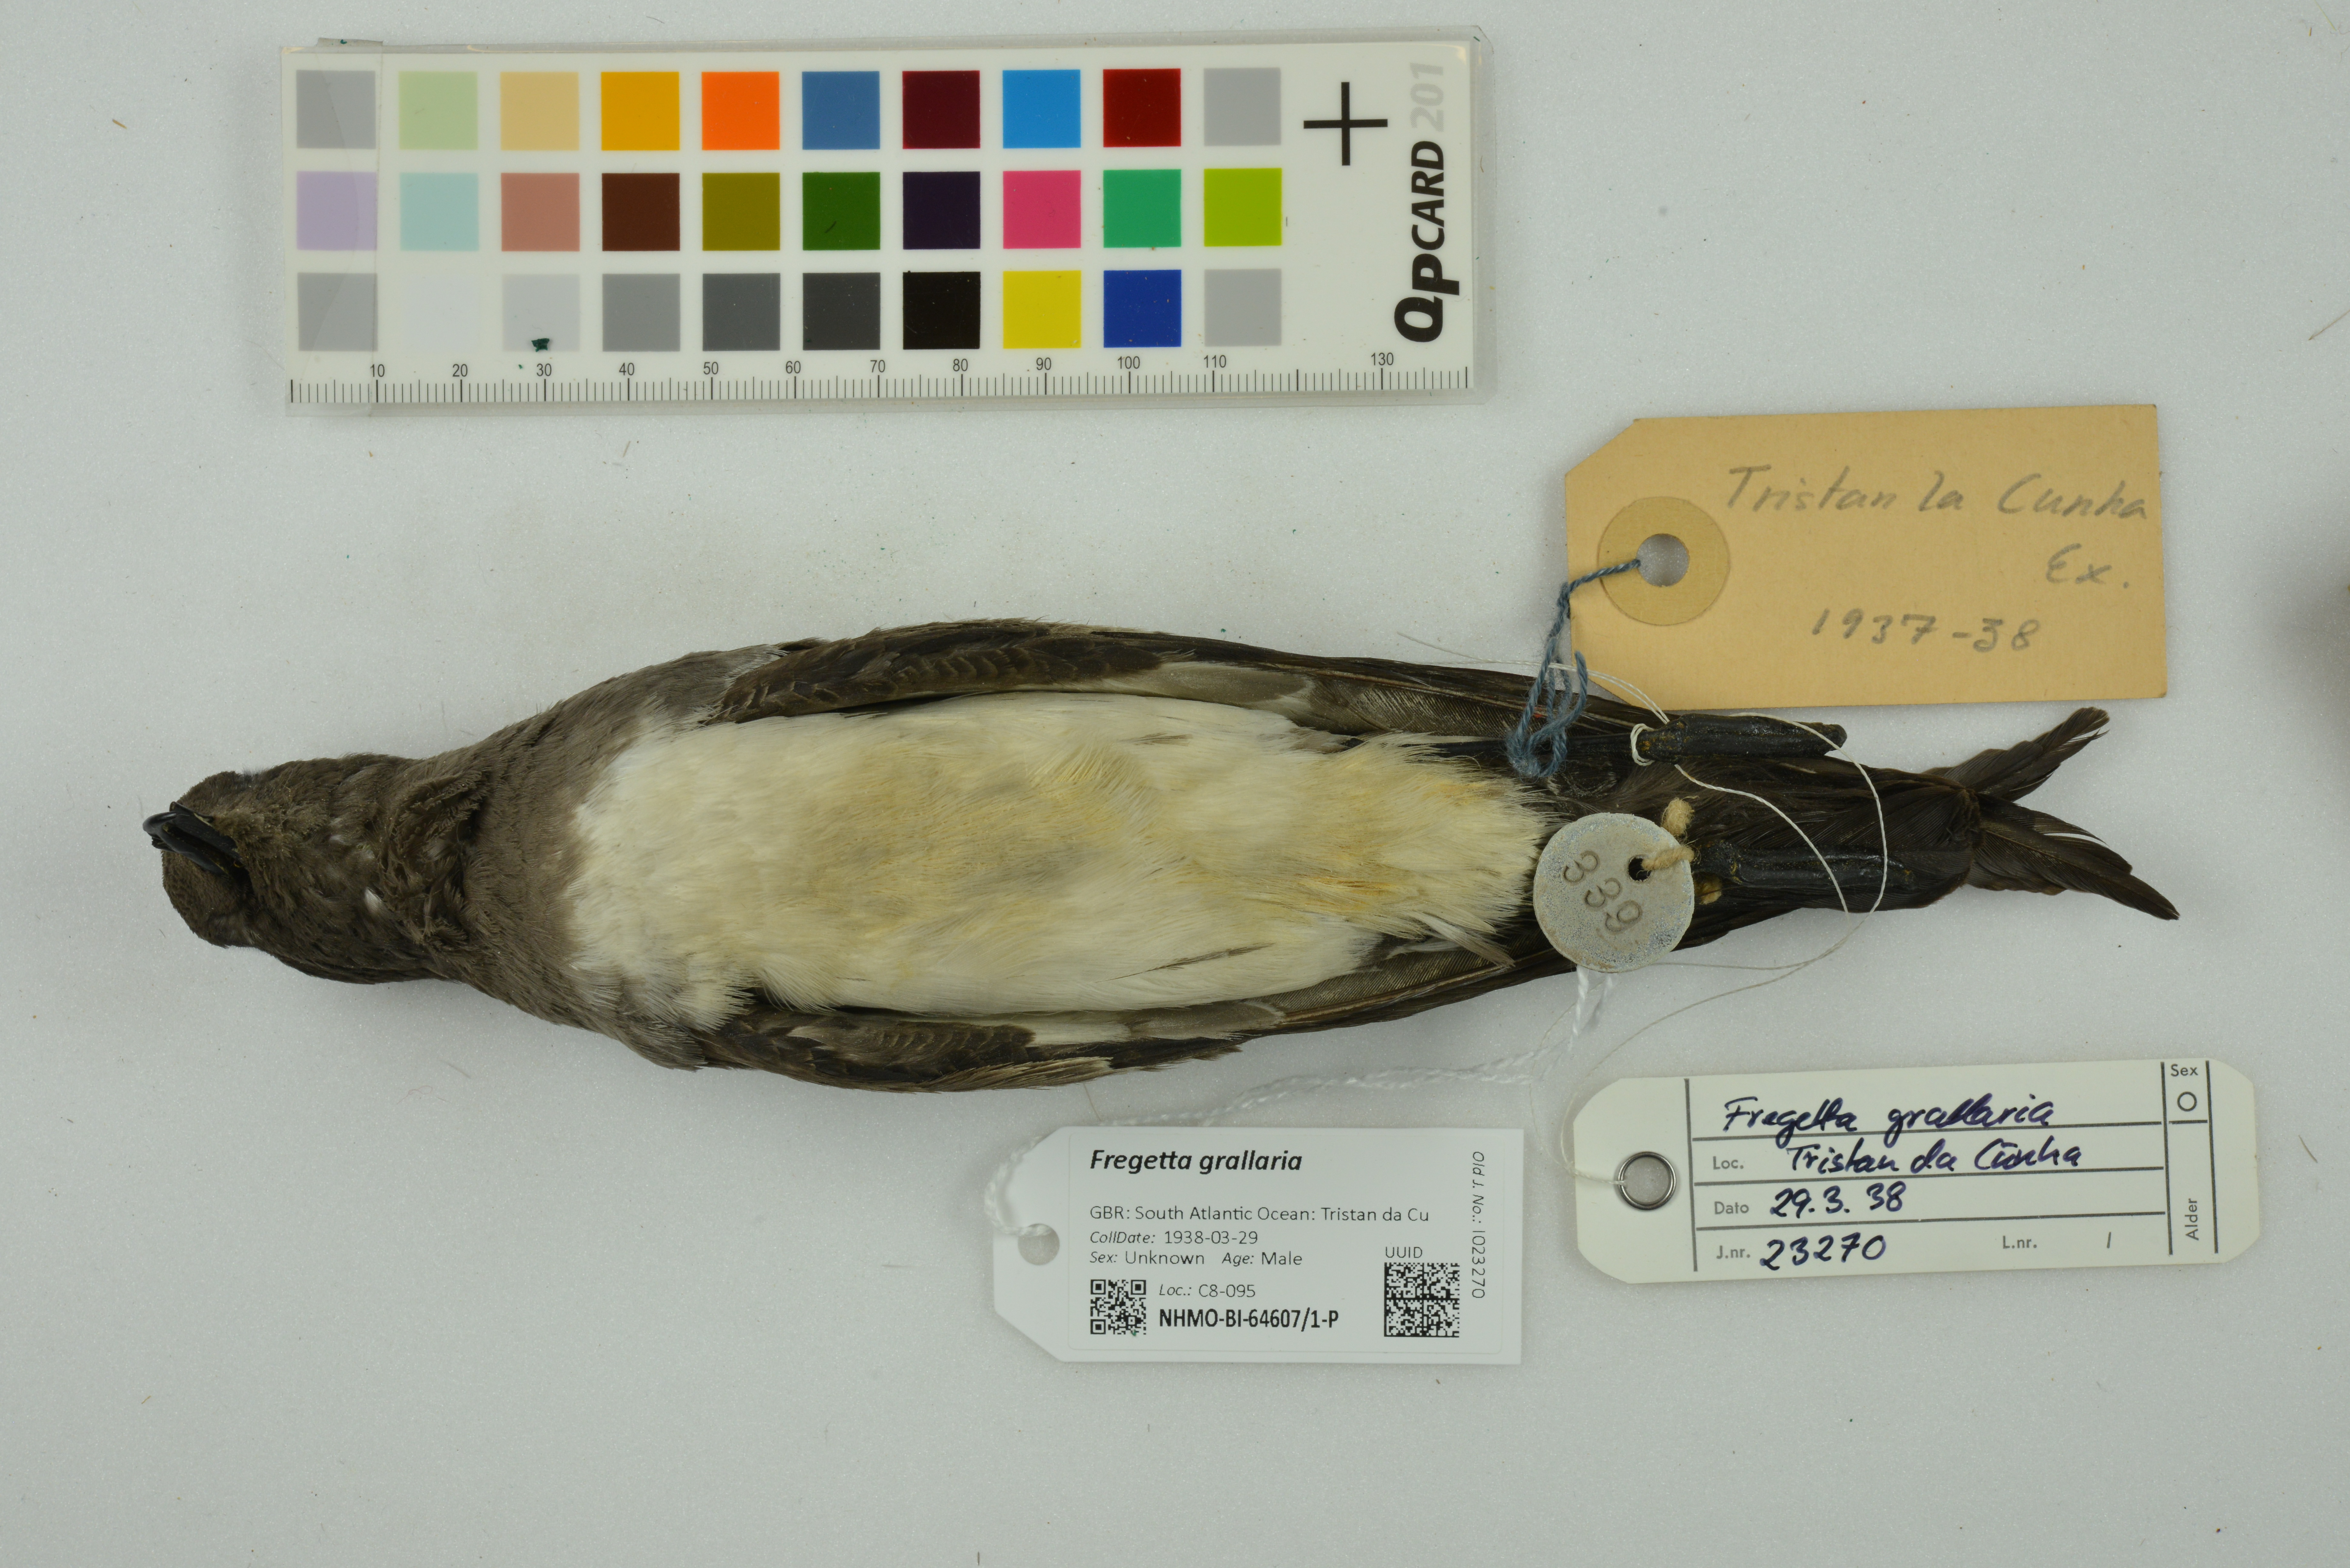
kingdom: Animalia
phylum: Chordata
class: Aves
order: Procellariiformes
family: Hydrobatidae
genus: Fregetta
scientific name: Fregetta grallaria
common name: White-bellied storm-petrel
